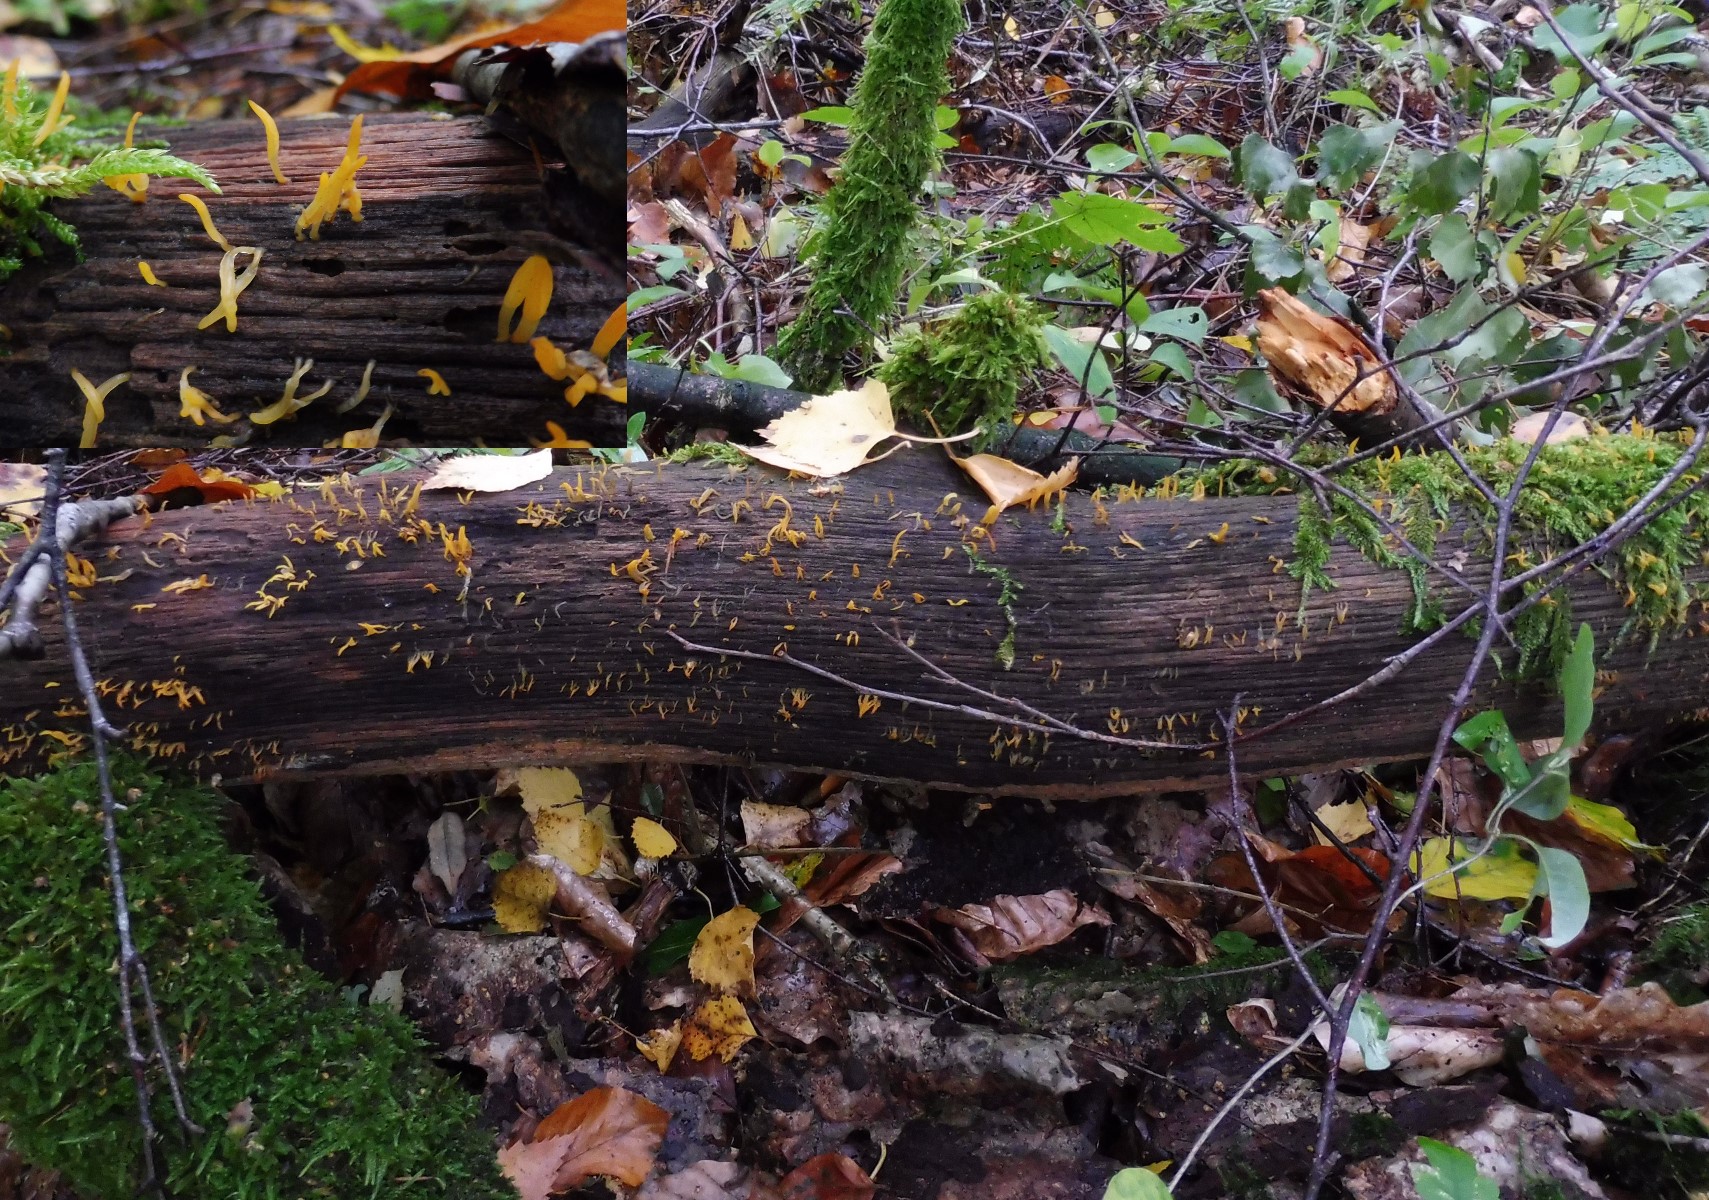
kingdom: Fungi
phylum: Basidiomycota
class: Dacrymycetes
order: Dacrymycetales
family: Dacrymycetaceae
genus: Calocera
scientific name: Calocera cornea
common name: liden guldgaffel
